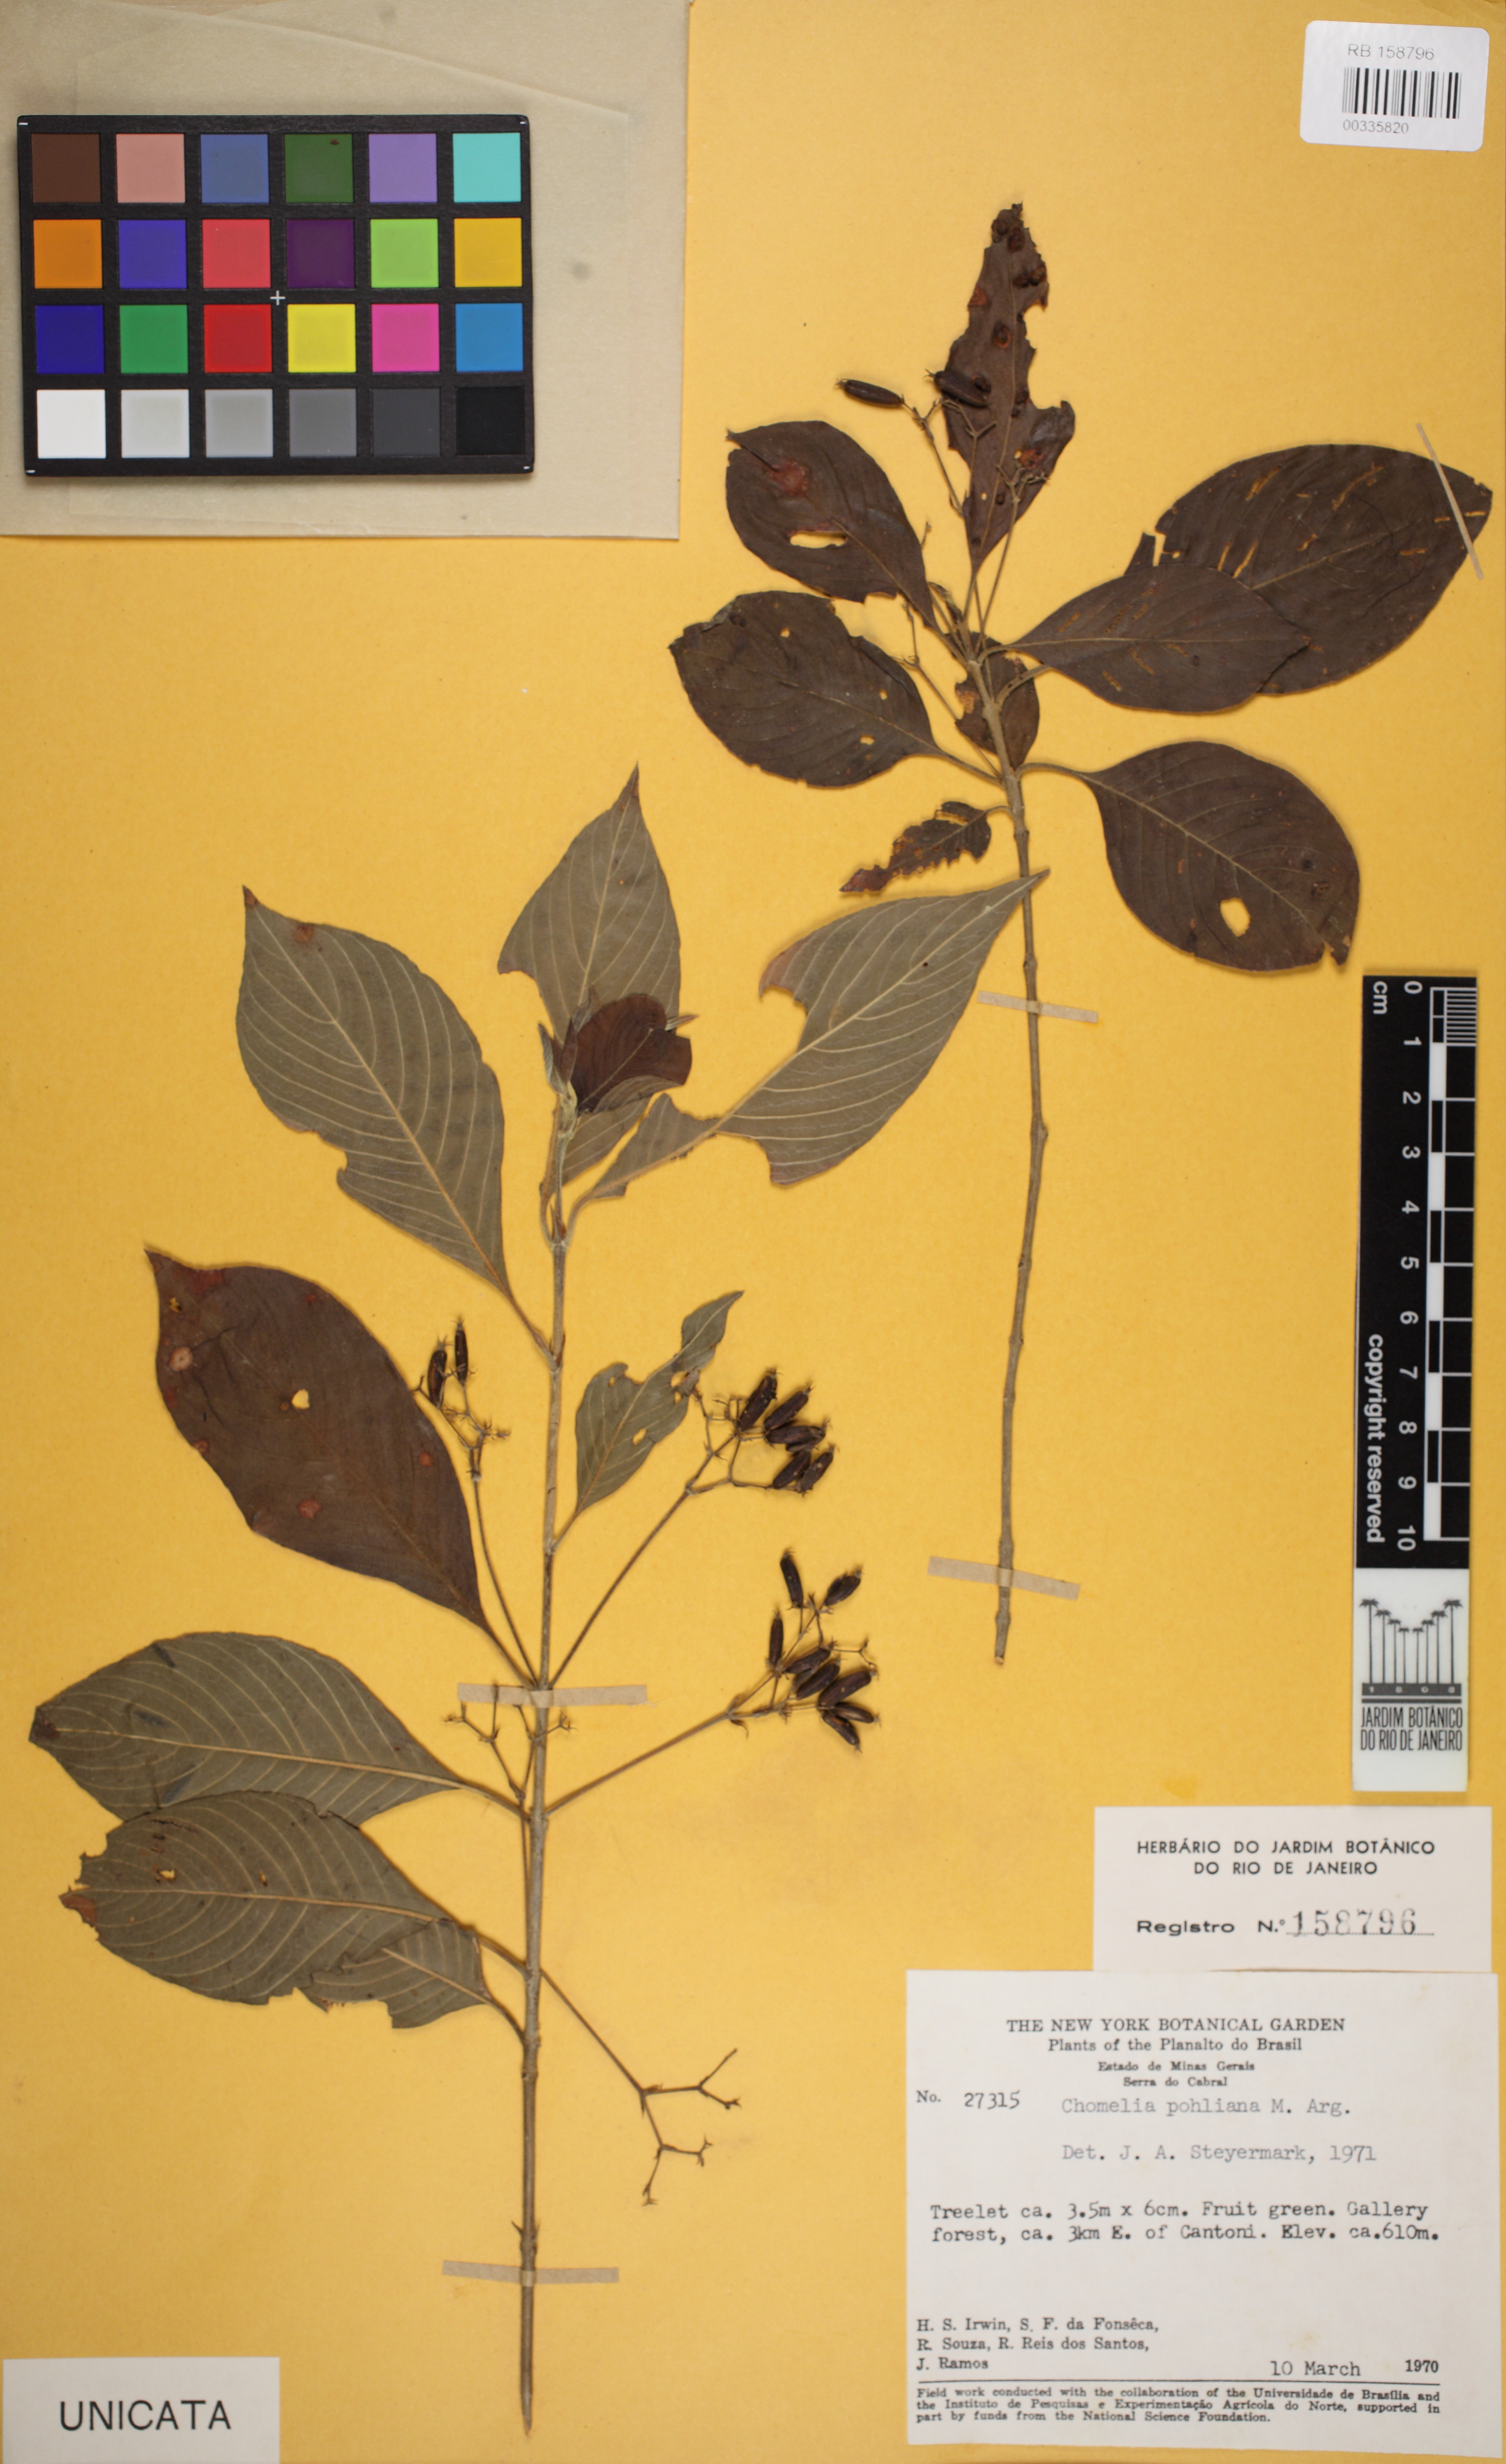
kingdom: Plantae
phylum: Tracheophyta
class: Magnoliopsida
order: Gentianales
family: Rubiaceae
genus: Chomelia
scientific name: Chomelia pohliana
